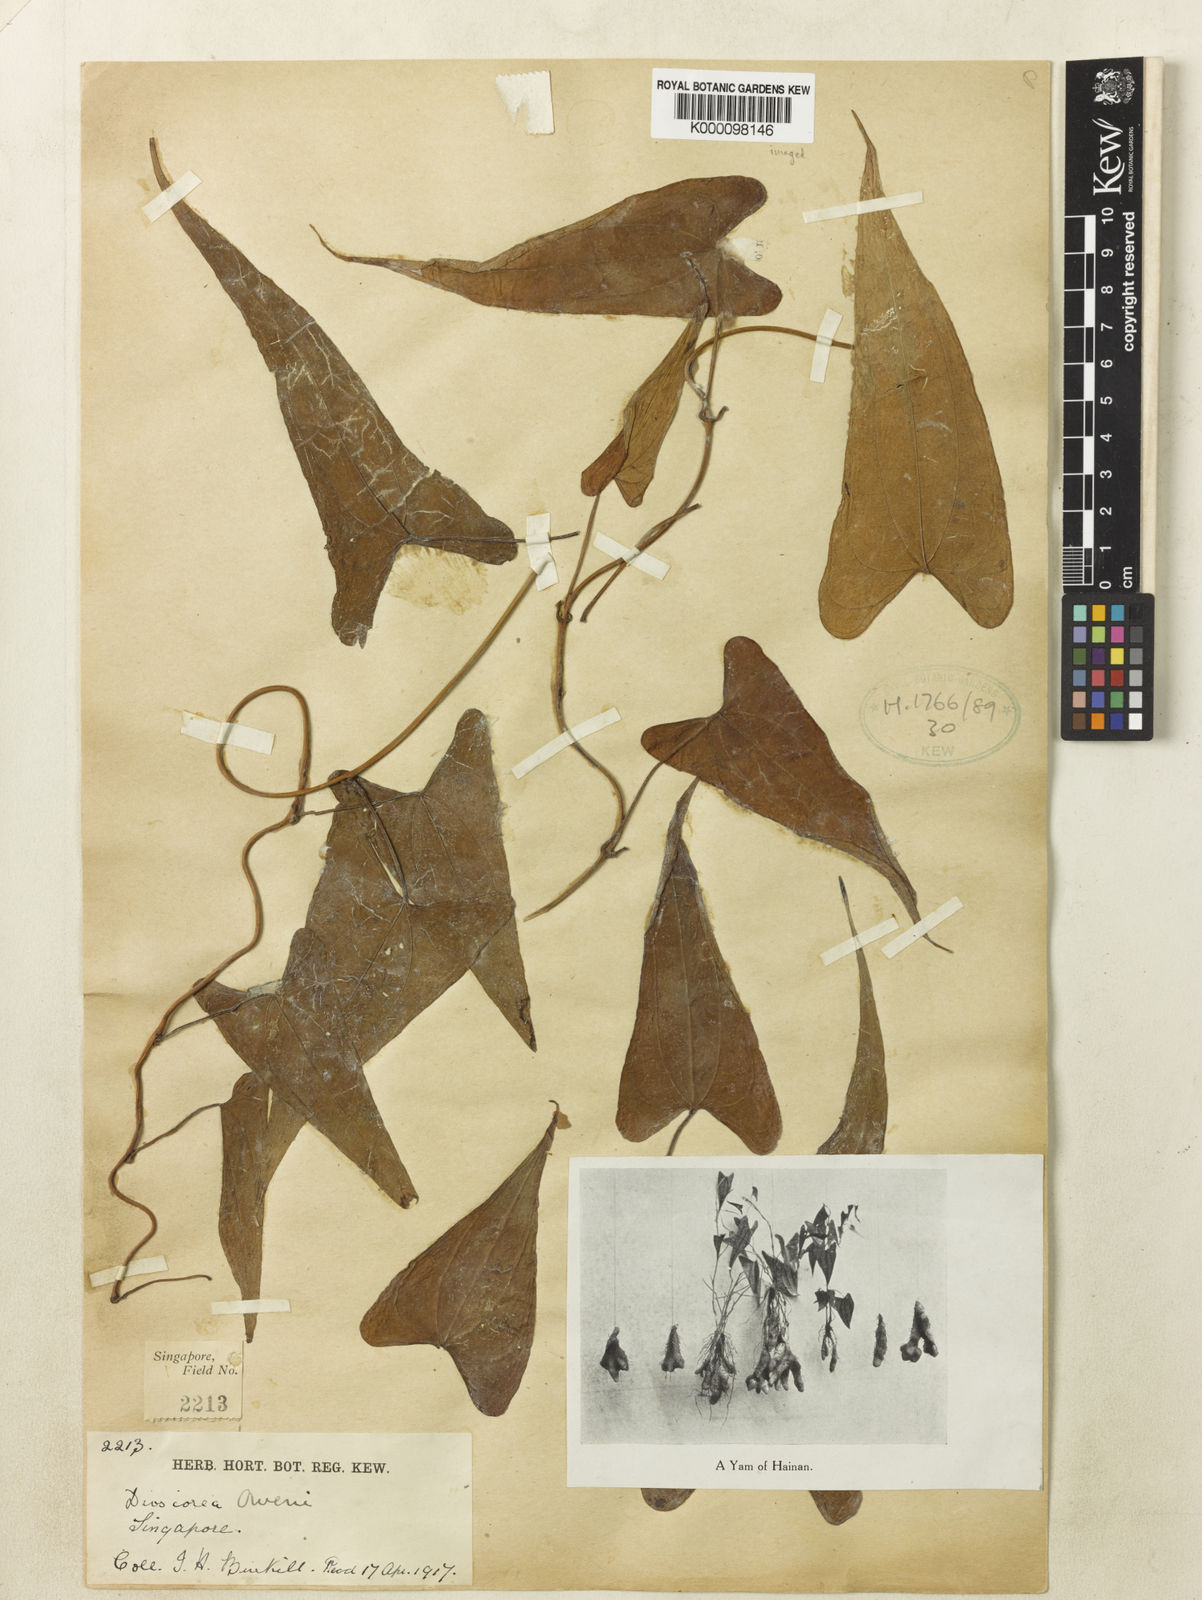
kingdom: Plantae
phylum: Tracheophyta
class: Liliopsida
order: Dioscoreales
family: Dioscoreaceae
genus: Dioscorea
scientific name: Dioscorea owenii
